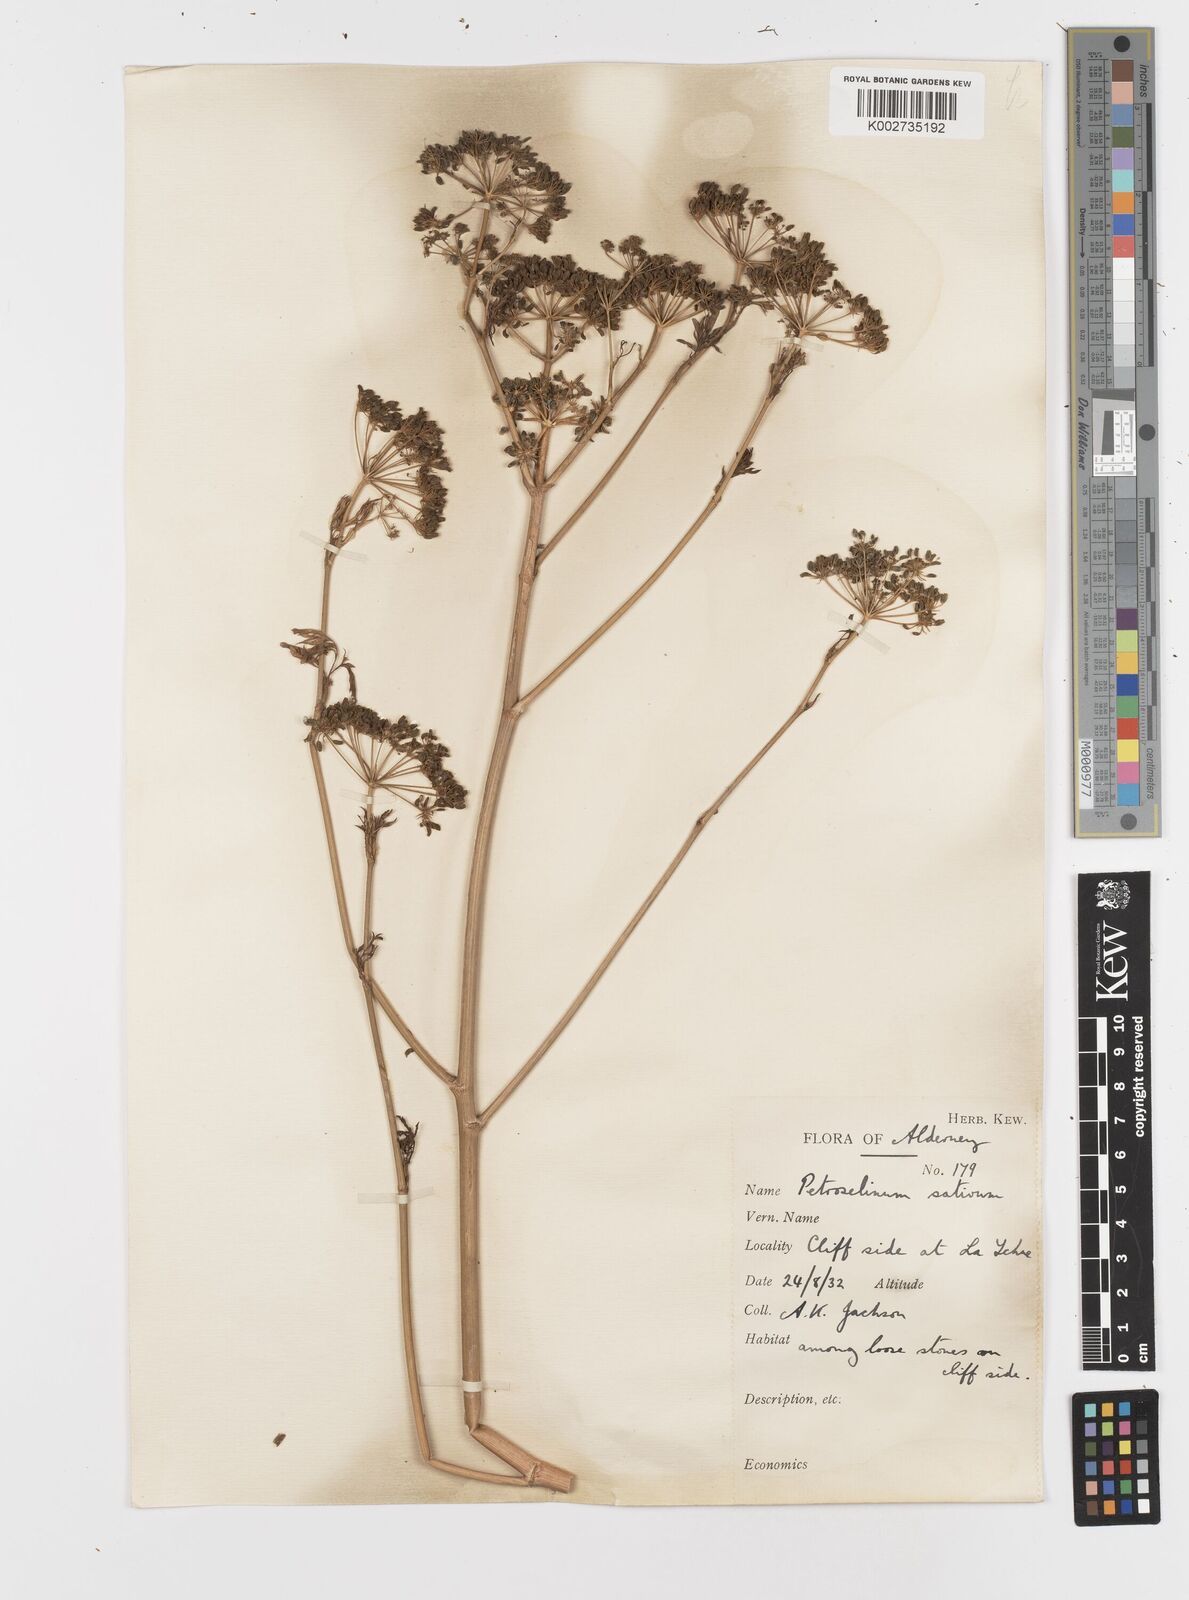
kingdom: Plantae
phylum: Tracheophyta
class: Magnoliopsida
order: Apiales
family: Apiaceae
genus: Petroselinum
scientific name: Petroselinum crispum
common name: Parsley
